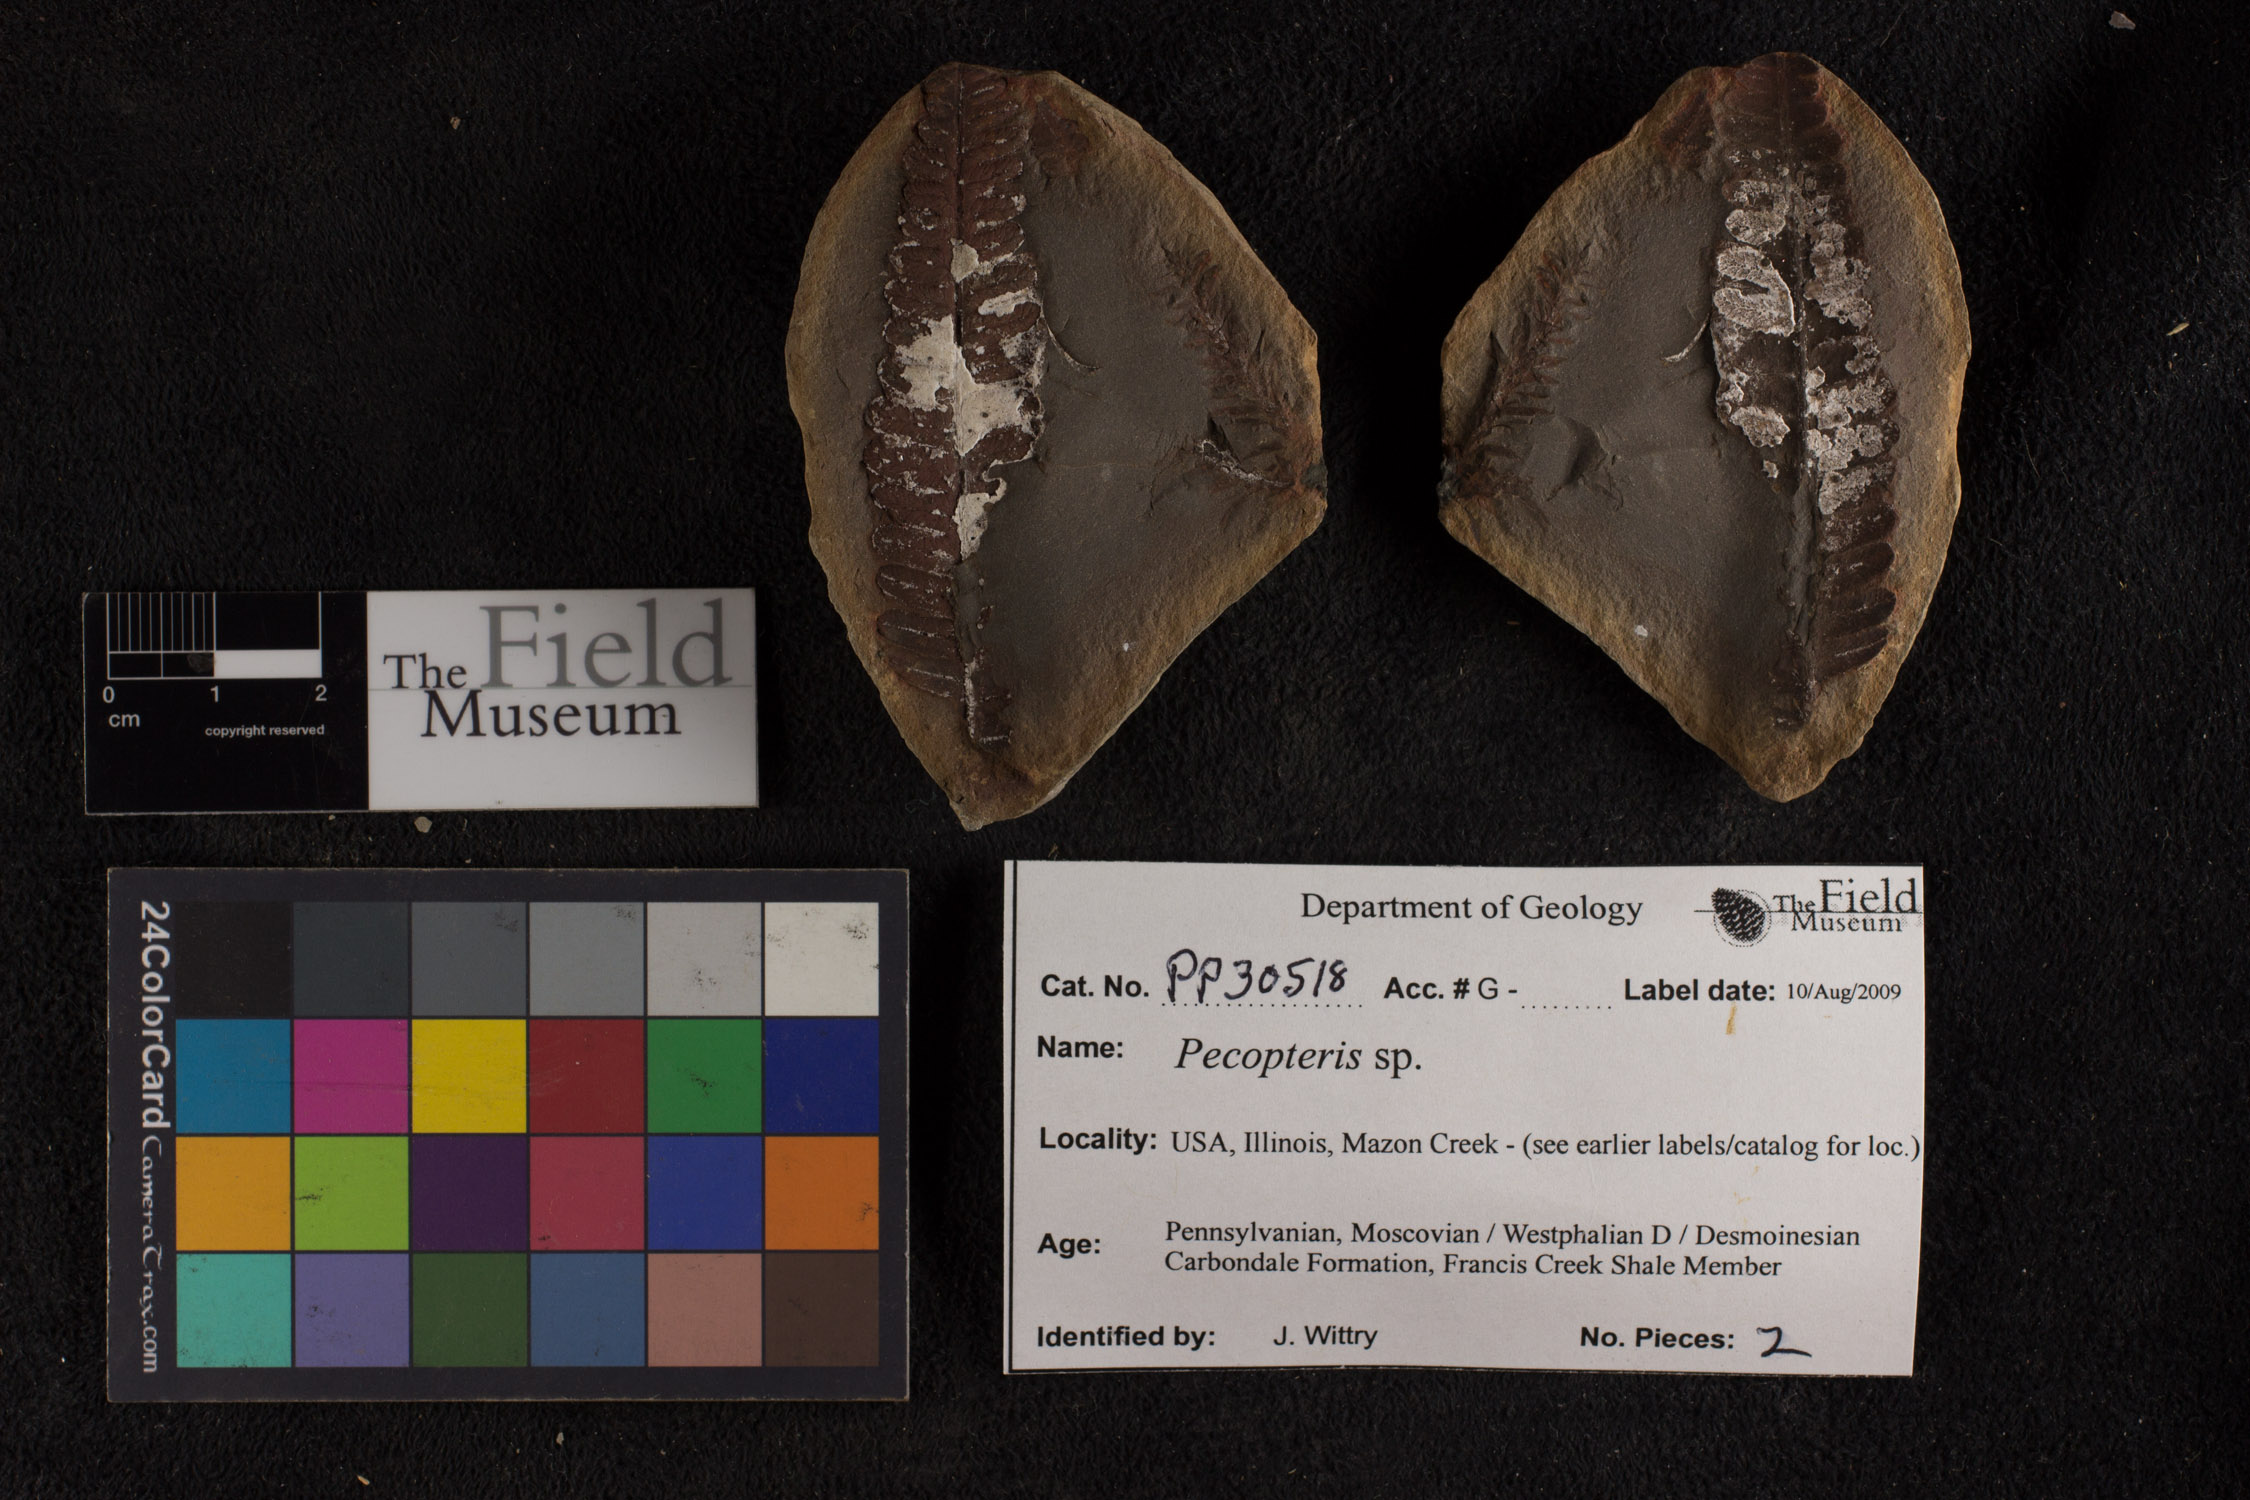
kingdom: Plantae
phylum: Tracheophyta
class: Polypodiopsida
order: Marattiales
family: Asterothecaceae
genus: Pecopteris
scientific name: Pecopteris
